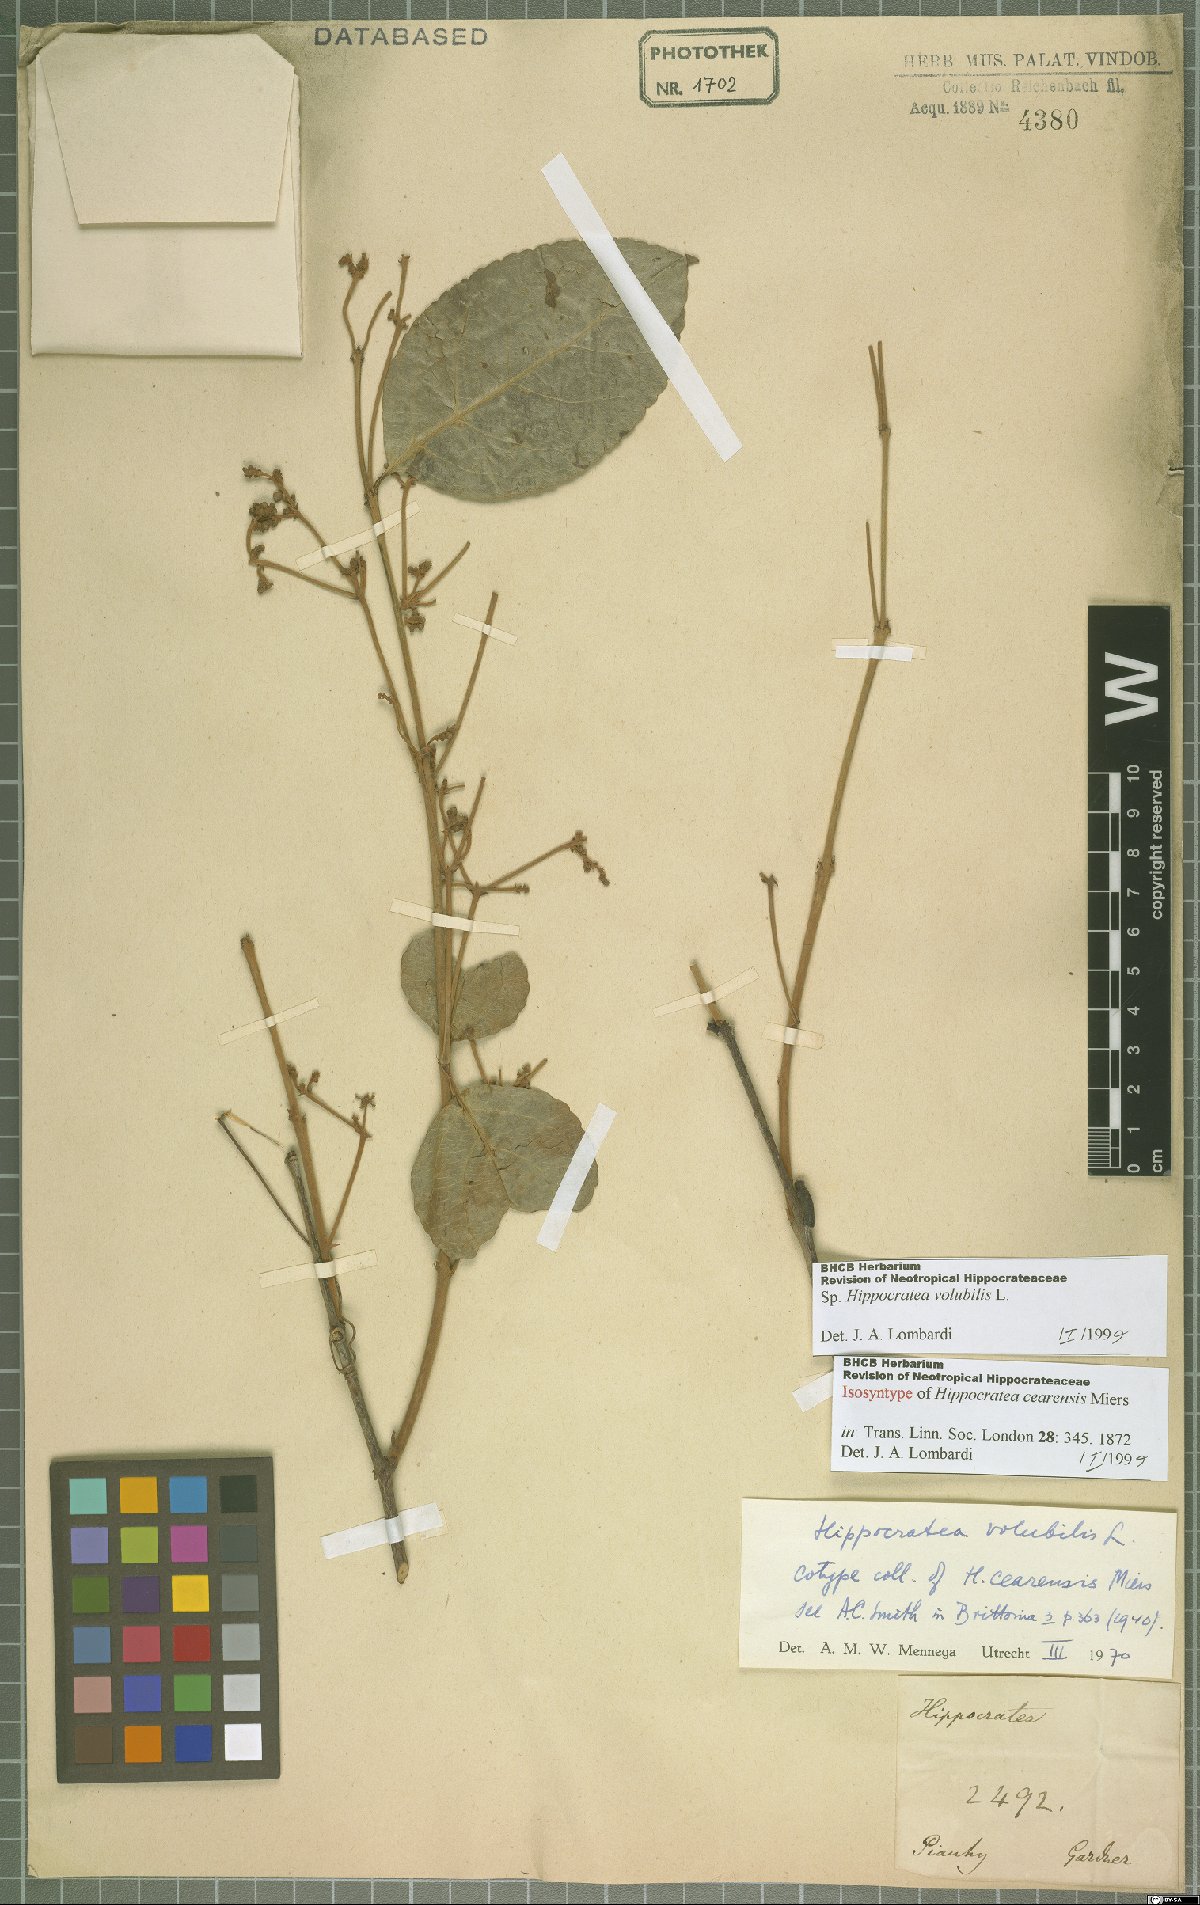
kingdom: Plantae
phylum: Tracheophyta
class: Magnoliopsida
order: Celastrales
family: Celastraceae
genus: Hippocratea
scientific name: Hippocratea volubilis
